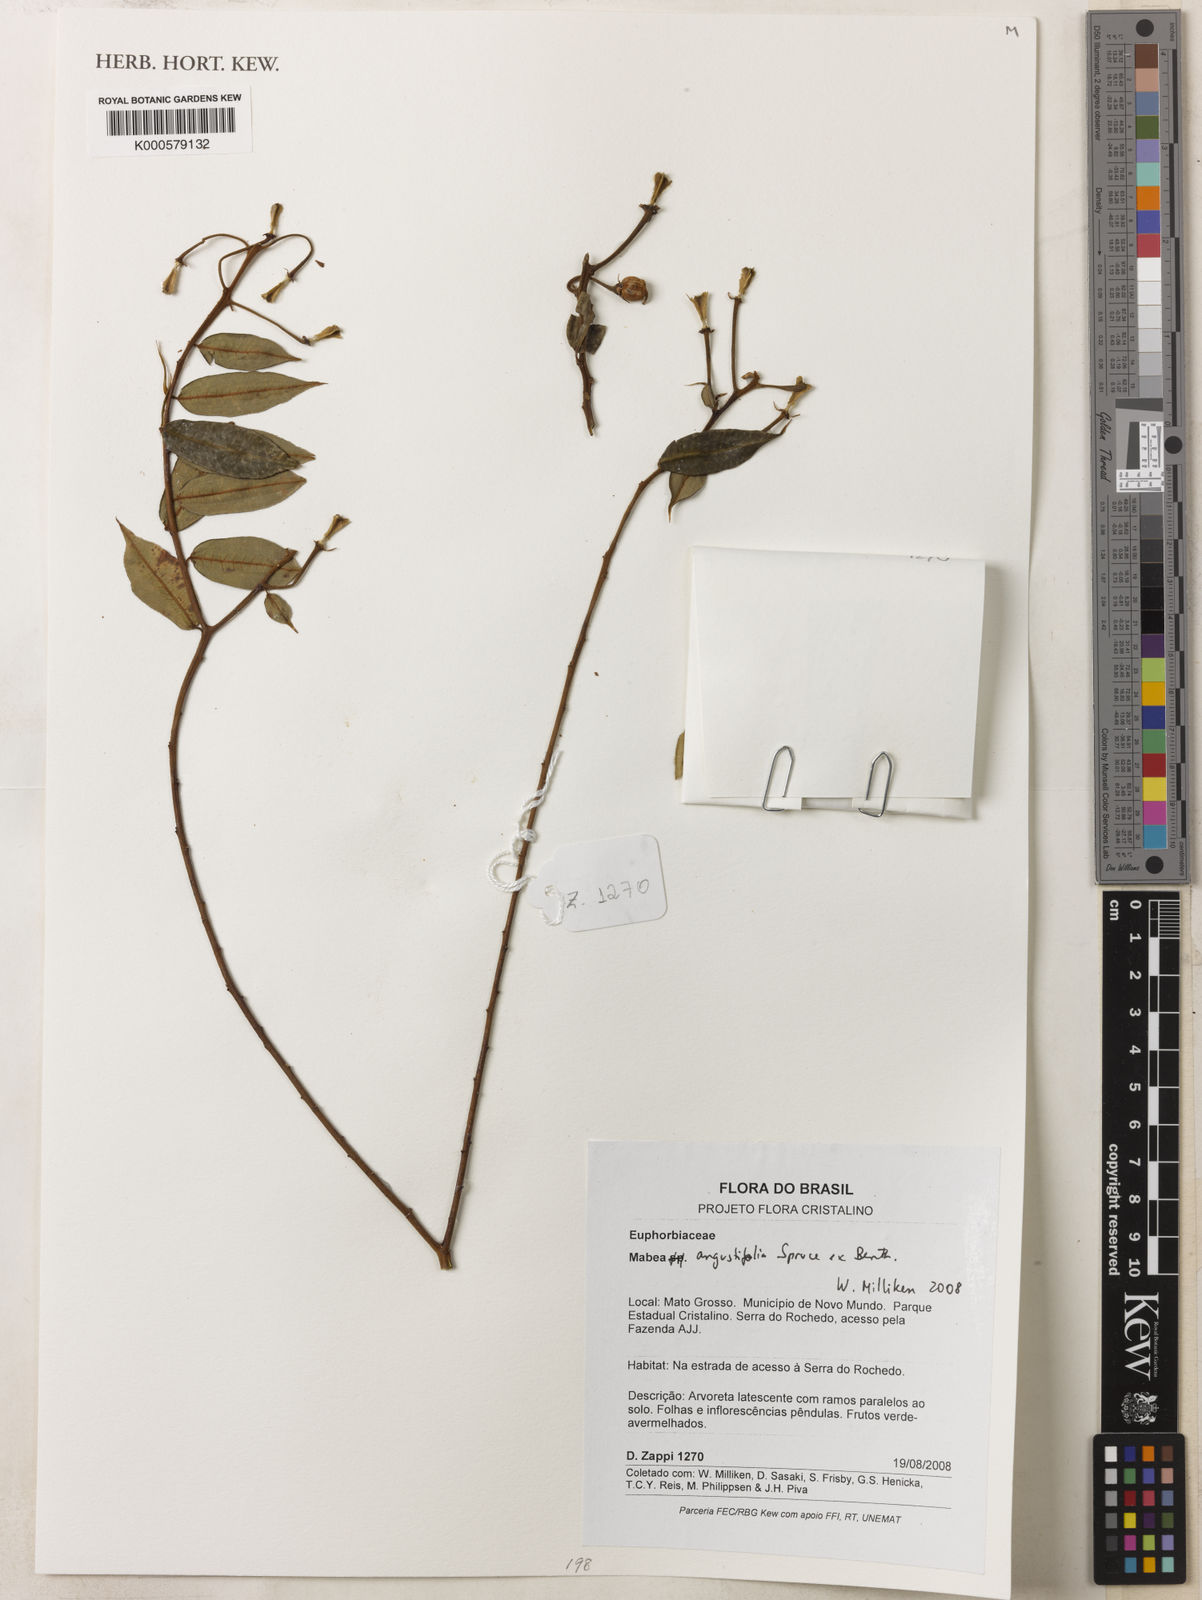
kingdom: Plantae
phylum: Tracheophyta
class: Magnoliopsida
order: Malpighiales
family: Euphorbiaceae
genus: Mabea
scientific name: Mabea angustifolia
